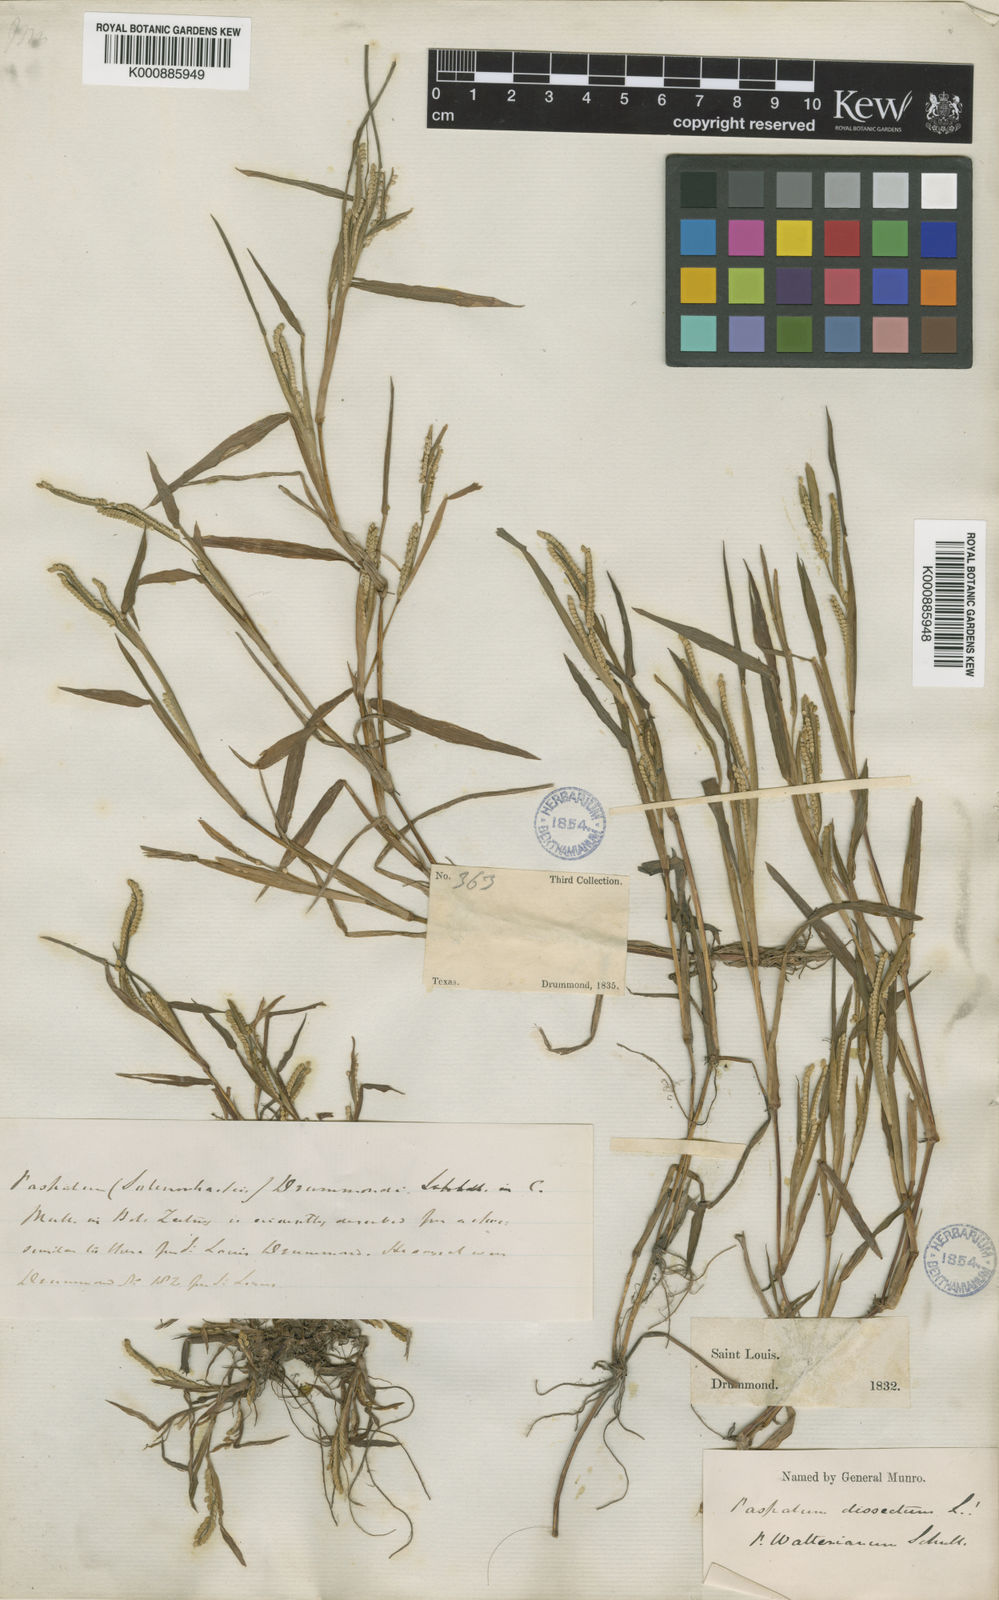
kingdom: Plantae
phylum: Tracheophyta
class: Liliopsida
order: Poales
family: Poaceae
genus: Paspalum
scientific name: Paspalum dissectum
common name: Bead grass
